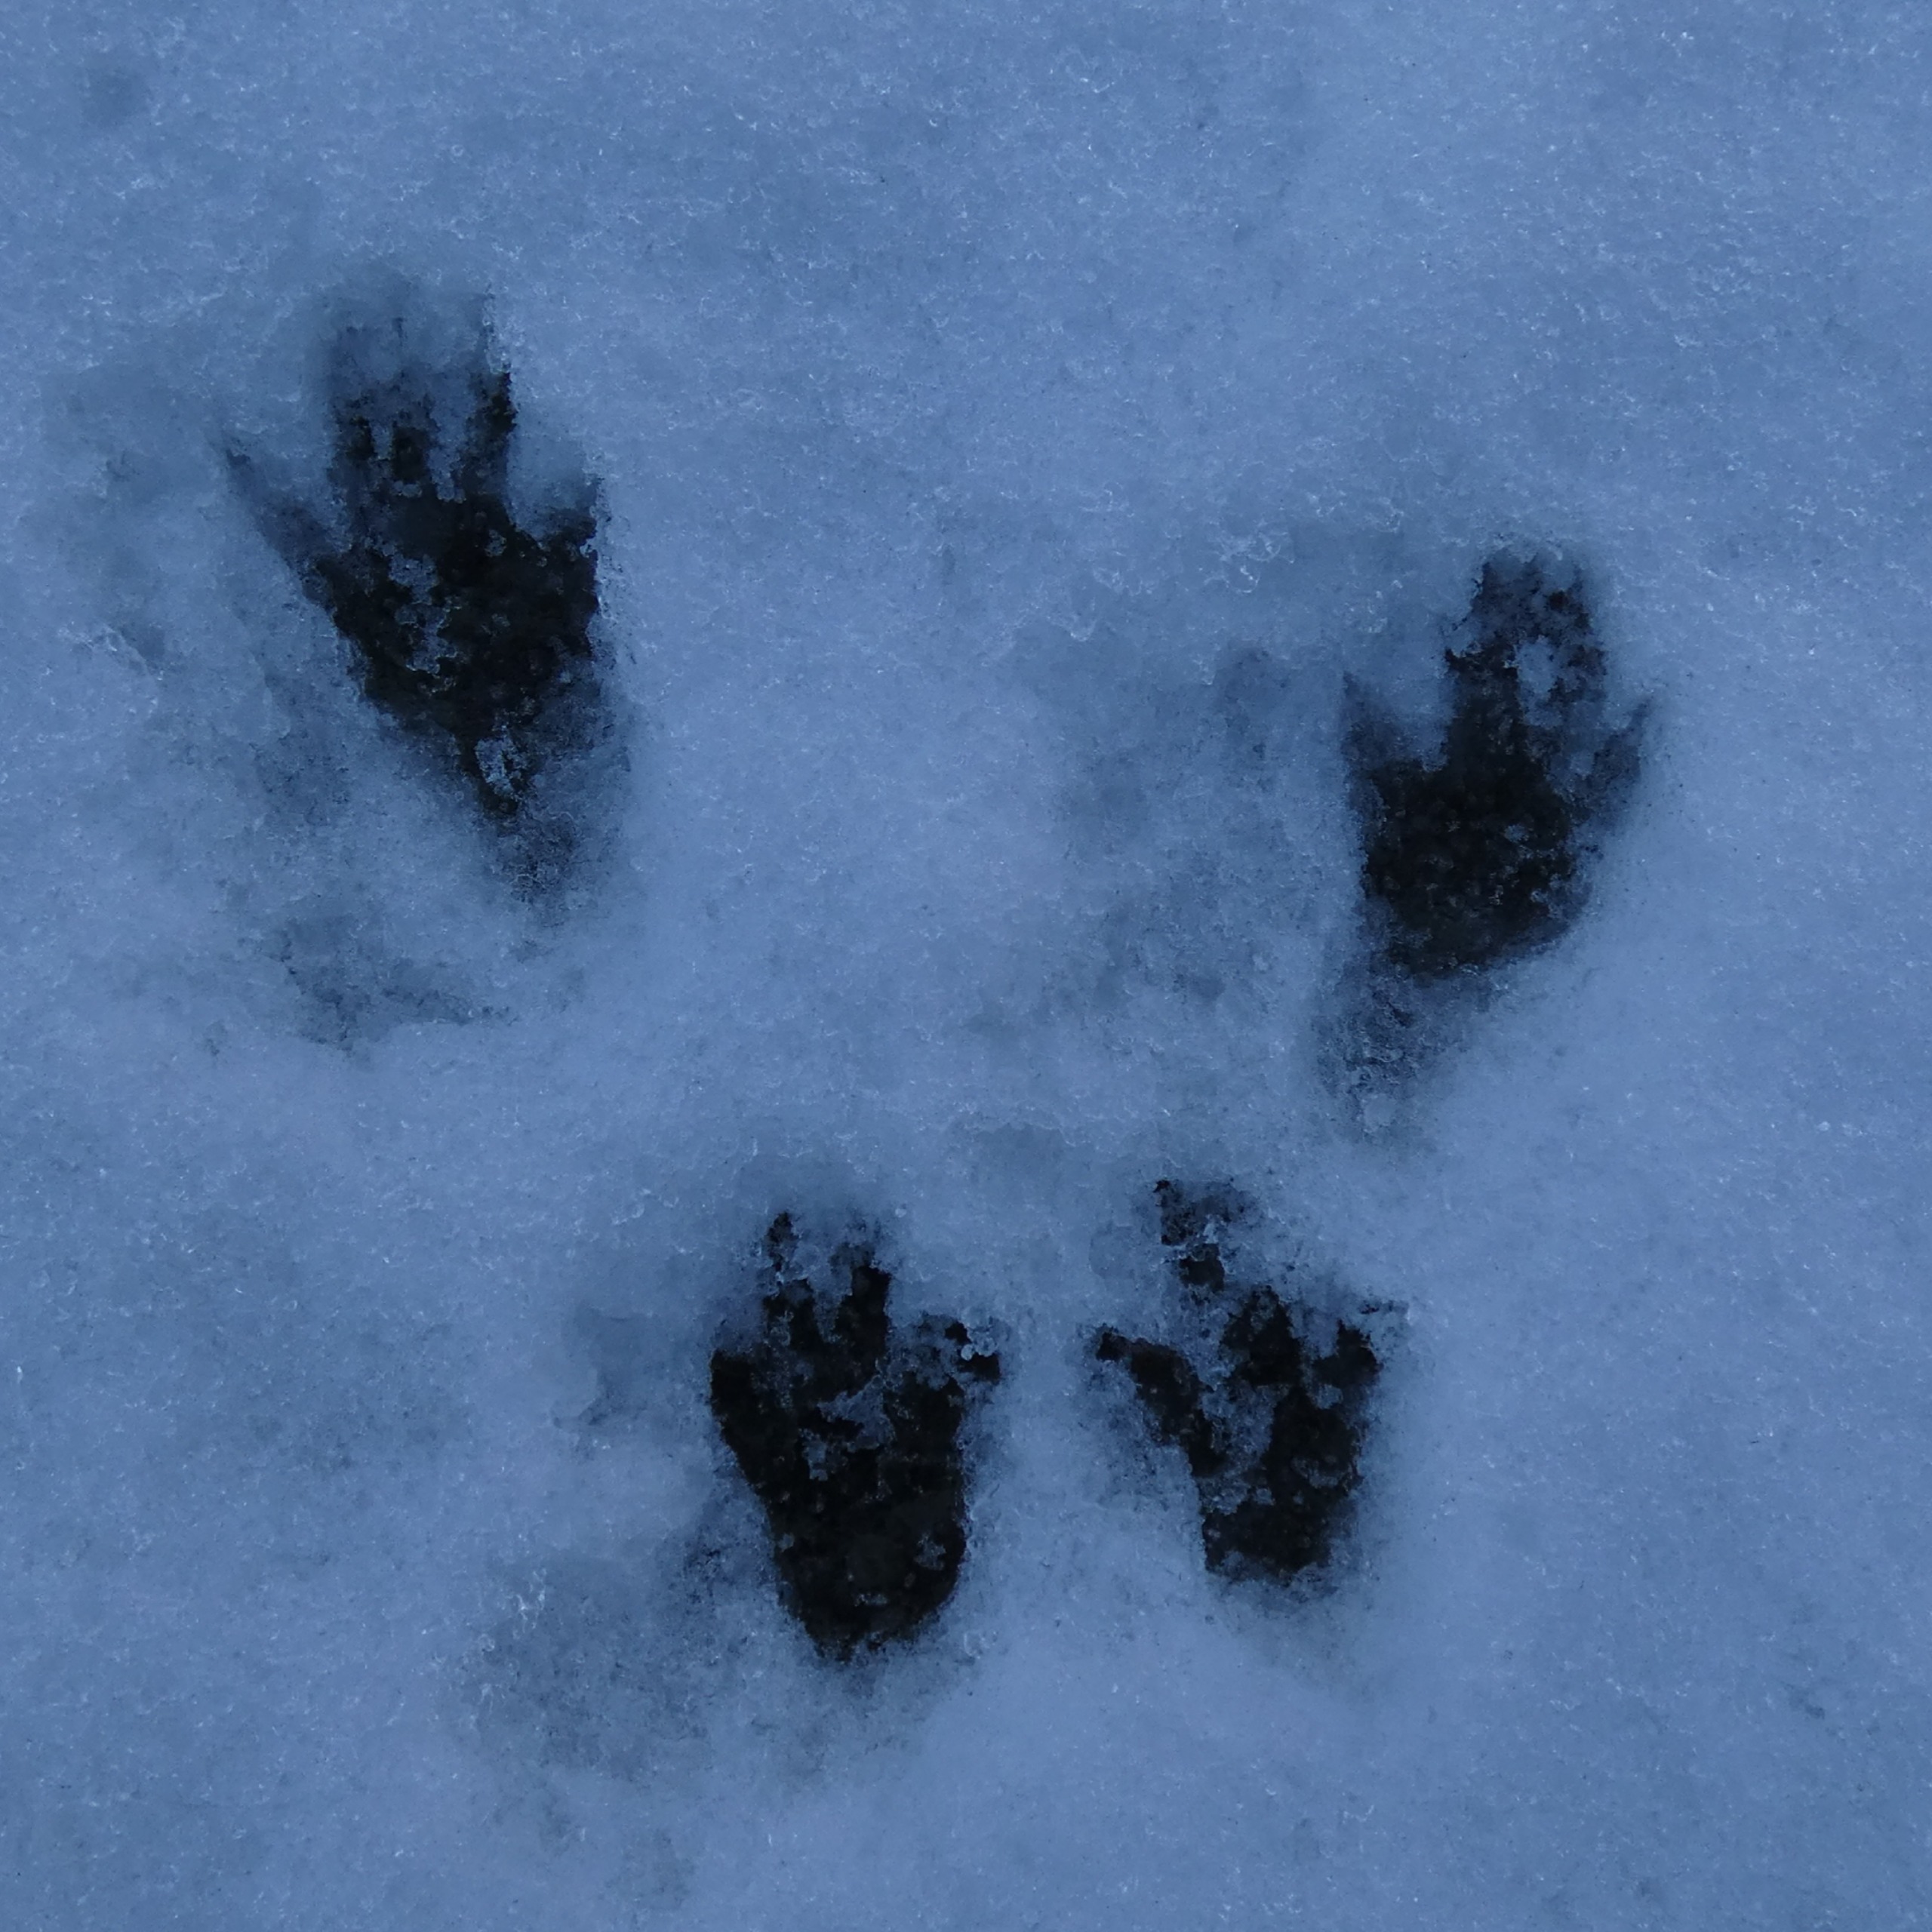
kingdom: Animalia
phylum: Chordata
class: Mammalia
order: Rodentia
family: Sciuridae
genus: Sciurus
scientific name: Sciurus vulgaris
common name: Egern
